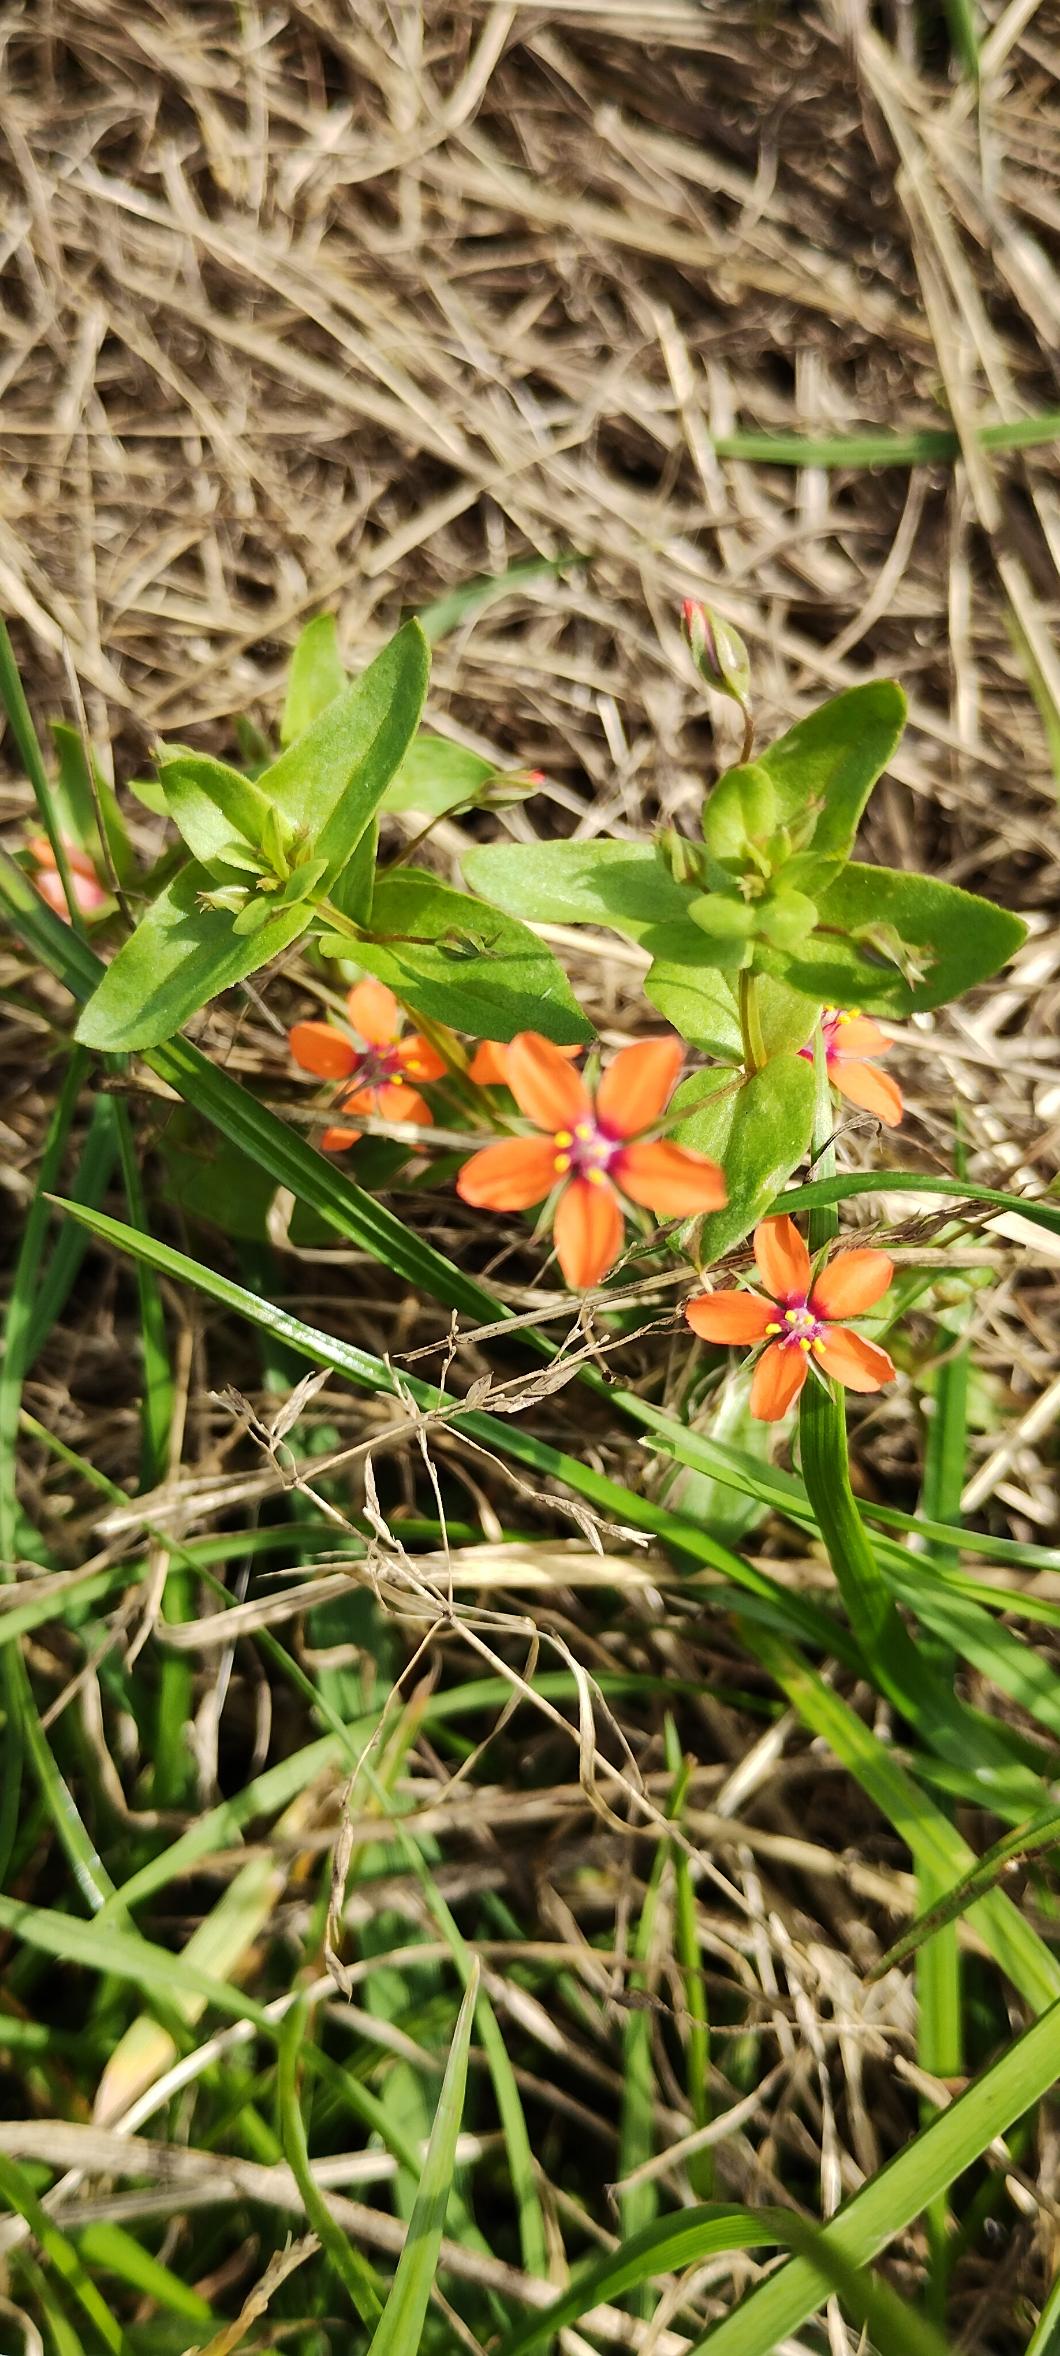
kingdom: Plantae
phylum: Tracheophyta
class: Magnoliopsida
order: Ericales
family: Primulaceae
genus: Lysimachia
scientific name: Lysimachia arvensis
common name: Rød arve
